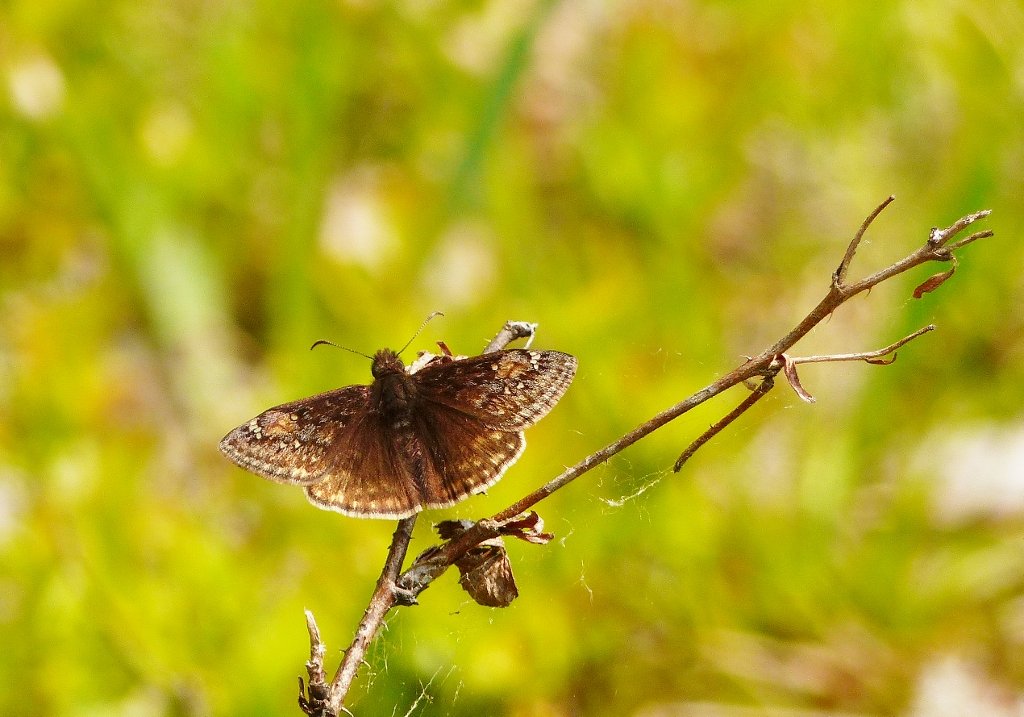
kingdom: Animalia
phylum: Arthropoda
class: Insecta
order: Lepidoptera
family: Hesperiidae
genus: Gesta
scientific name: Gesta
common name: Juvenal's Duskywing
